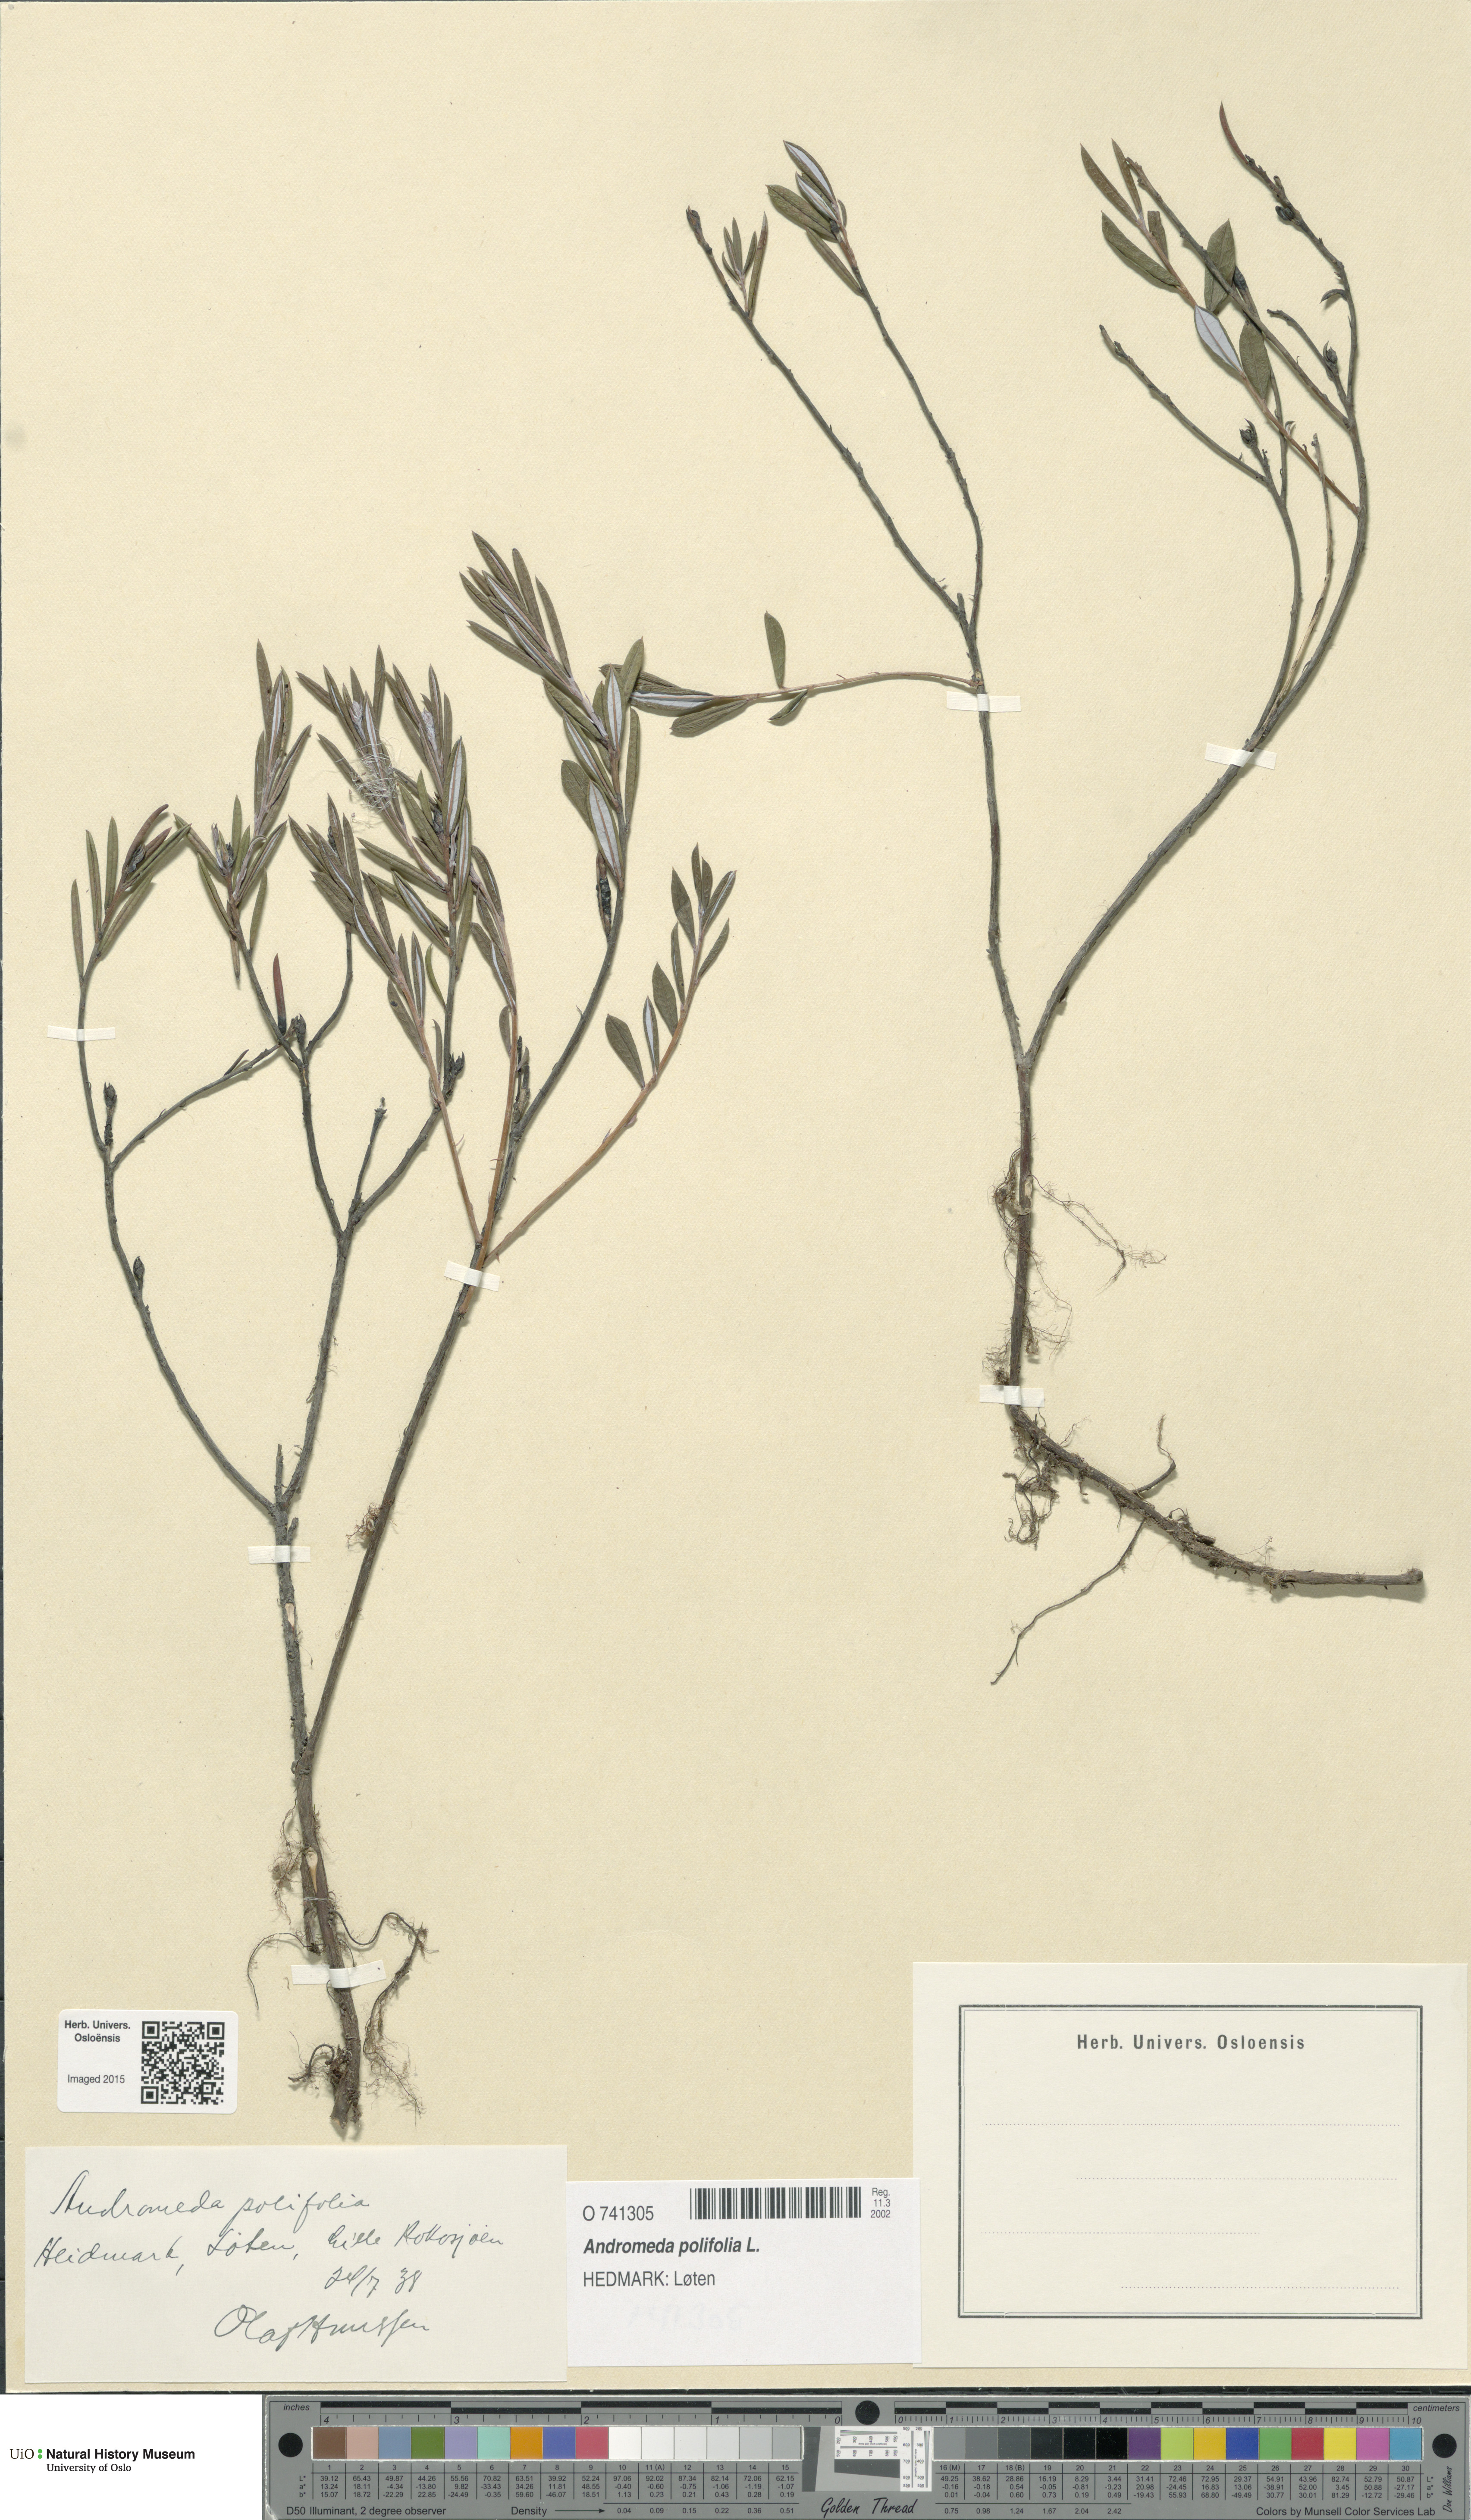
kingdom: Plantae
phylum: Tracheophyta
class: Magnoliopsida
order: Ericales
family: Ericaceae
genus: Andromeda
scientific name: Andromeda polifolia
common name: Bog-rosemary
